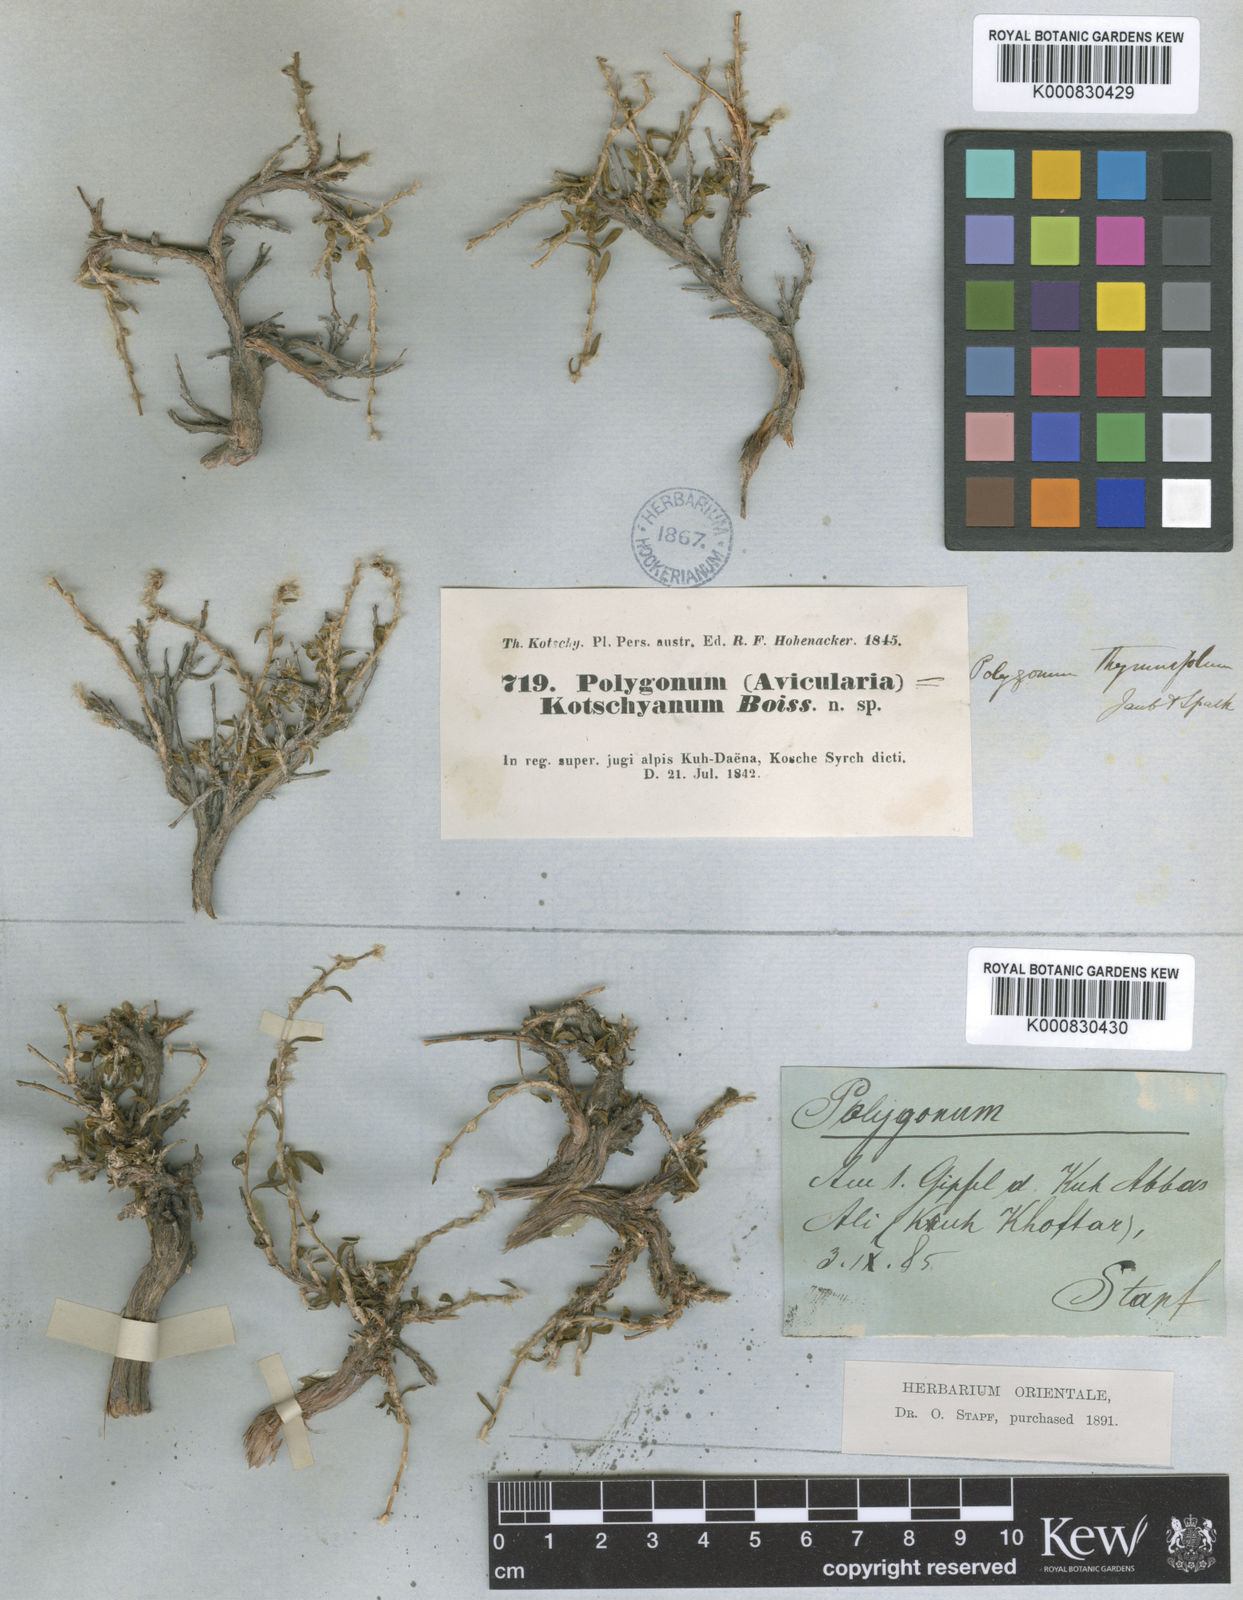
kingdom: Plantae
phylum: Tracheophyta
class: Magnoliopsida
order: Caryophyllales
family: Polygonaceae
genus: Polygonum
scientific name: Polygonum thymifolium
